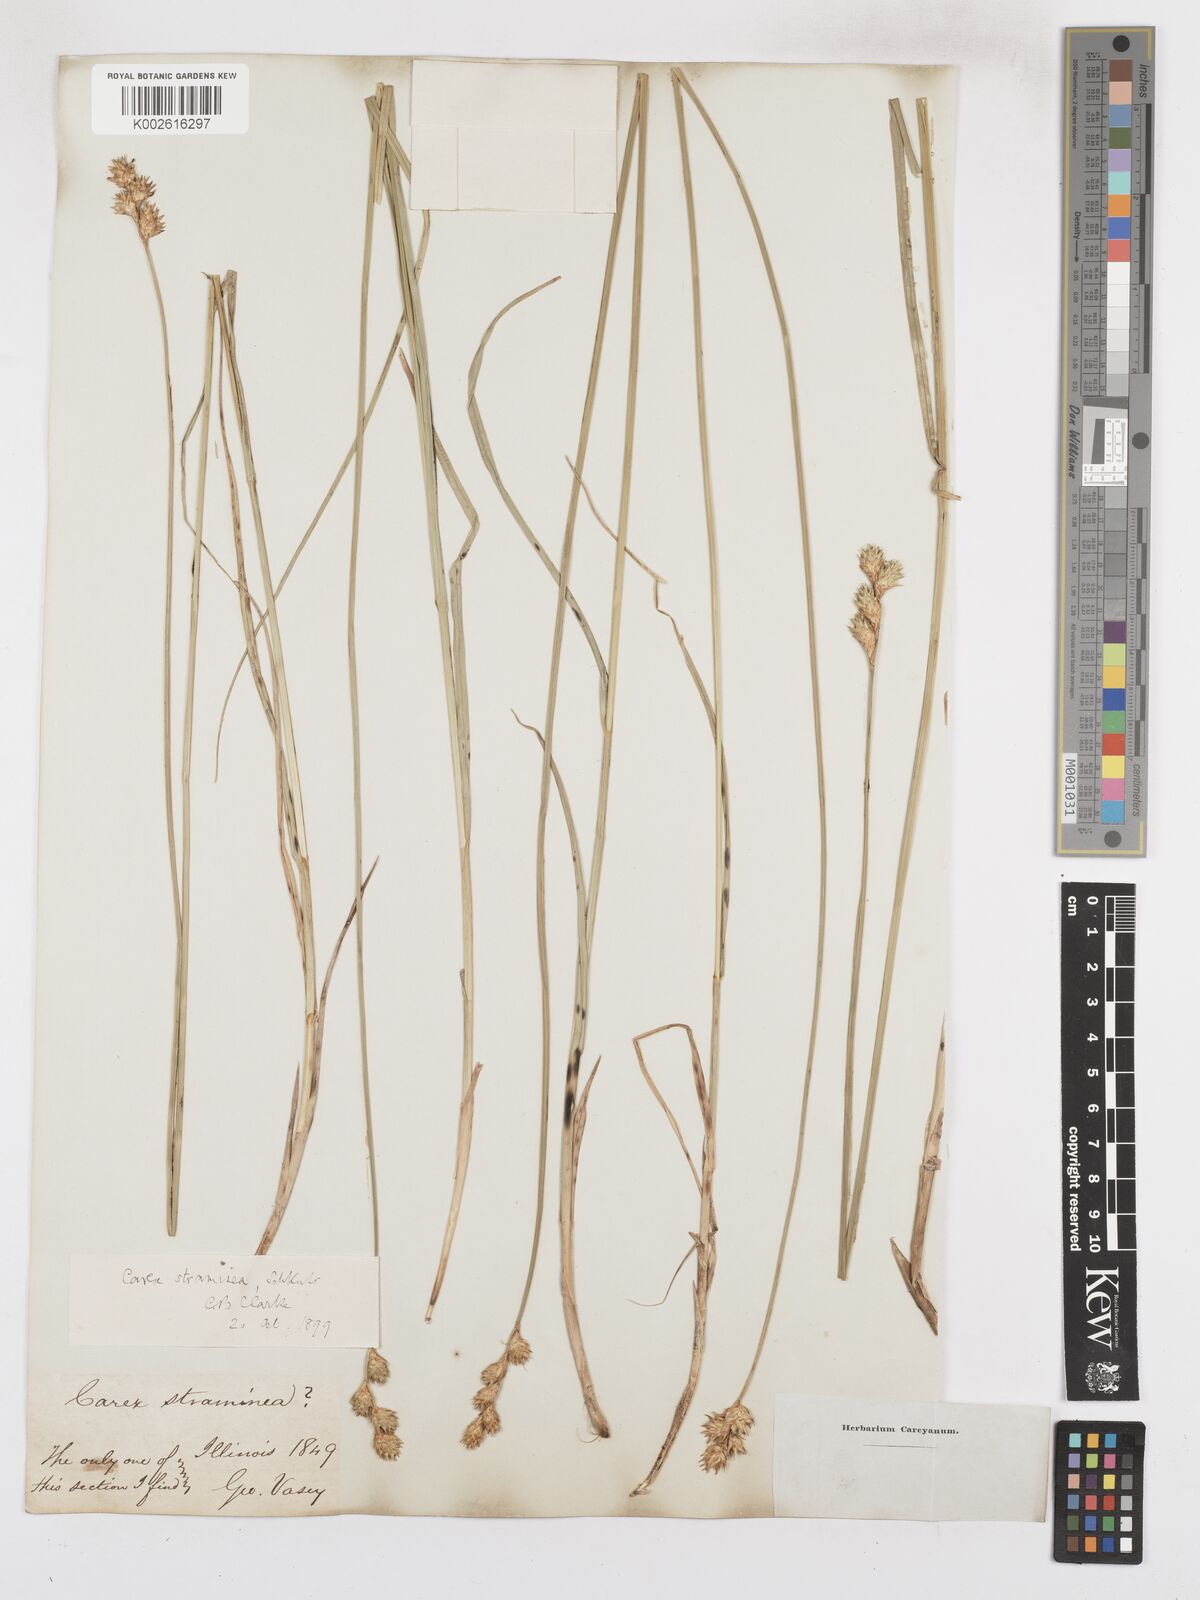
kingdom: Plantae
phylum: Tracheophyta
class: Liliopsida
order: Poales
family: Cyperaceae
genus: Carex
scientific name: Carex albolutescens
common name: Freenish white sedge
